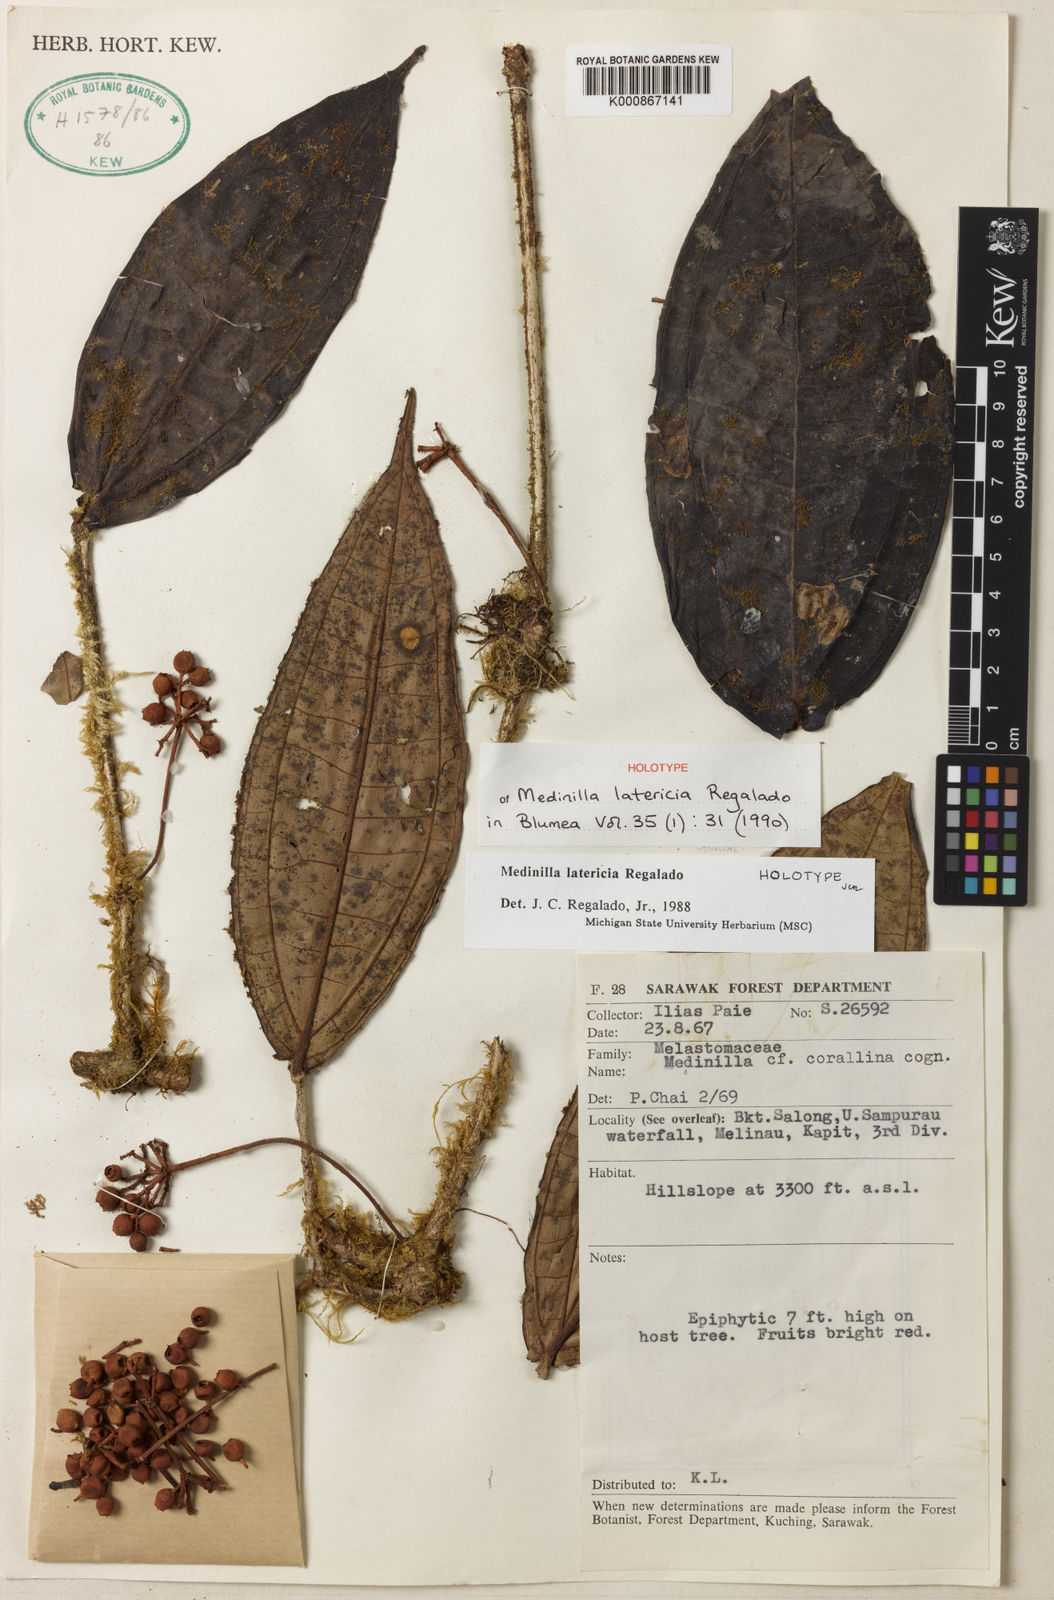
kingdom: Plantae
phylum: Tracheophyta
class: Magnoliopsida
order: Myrtales
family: Melastomataceae
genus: Medinilla
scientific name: Medinilla latericia
